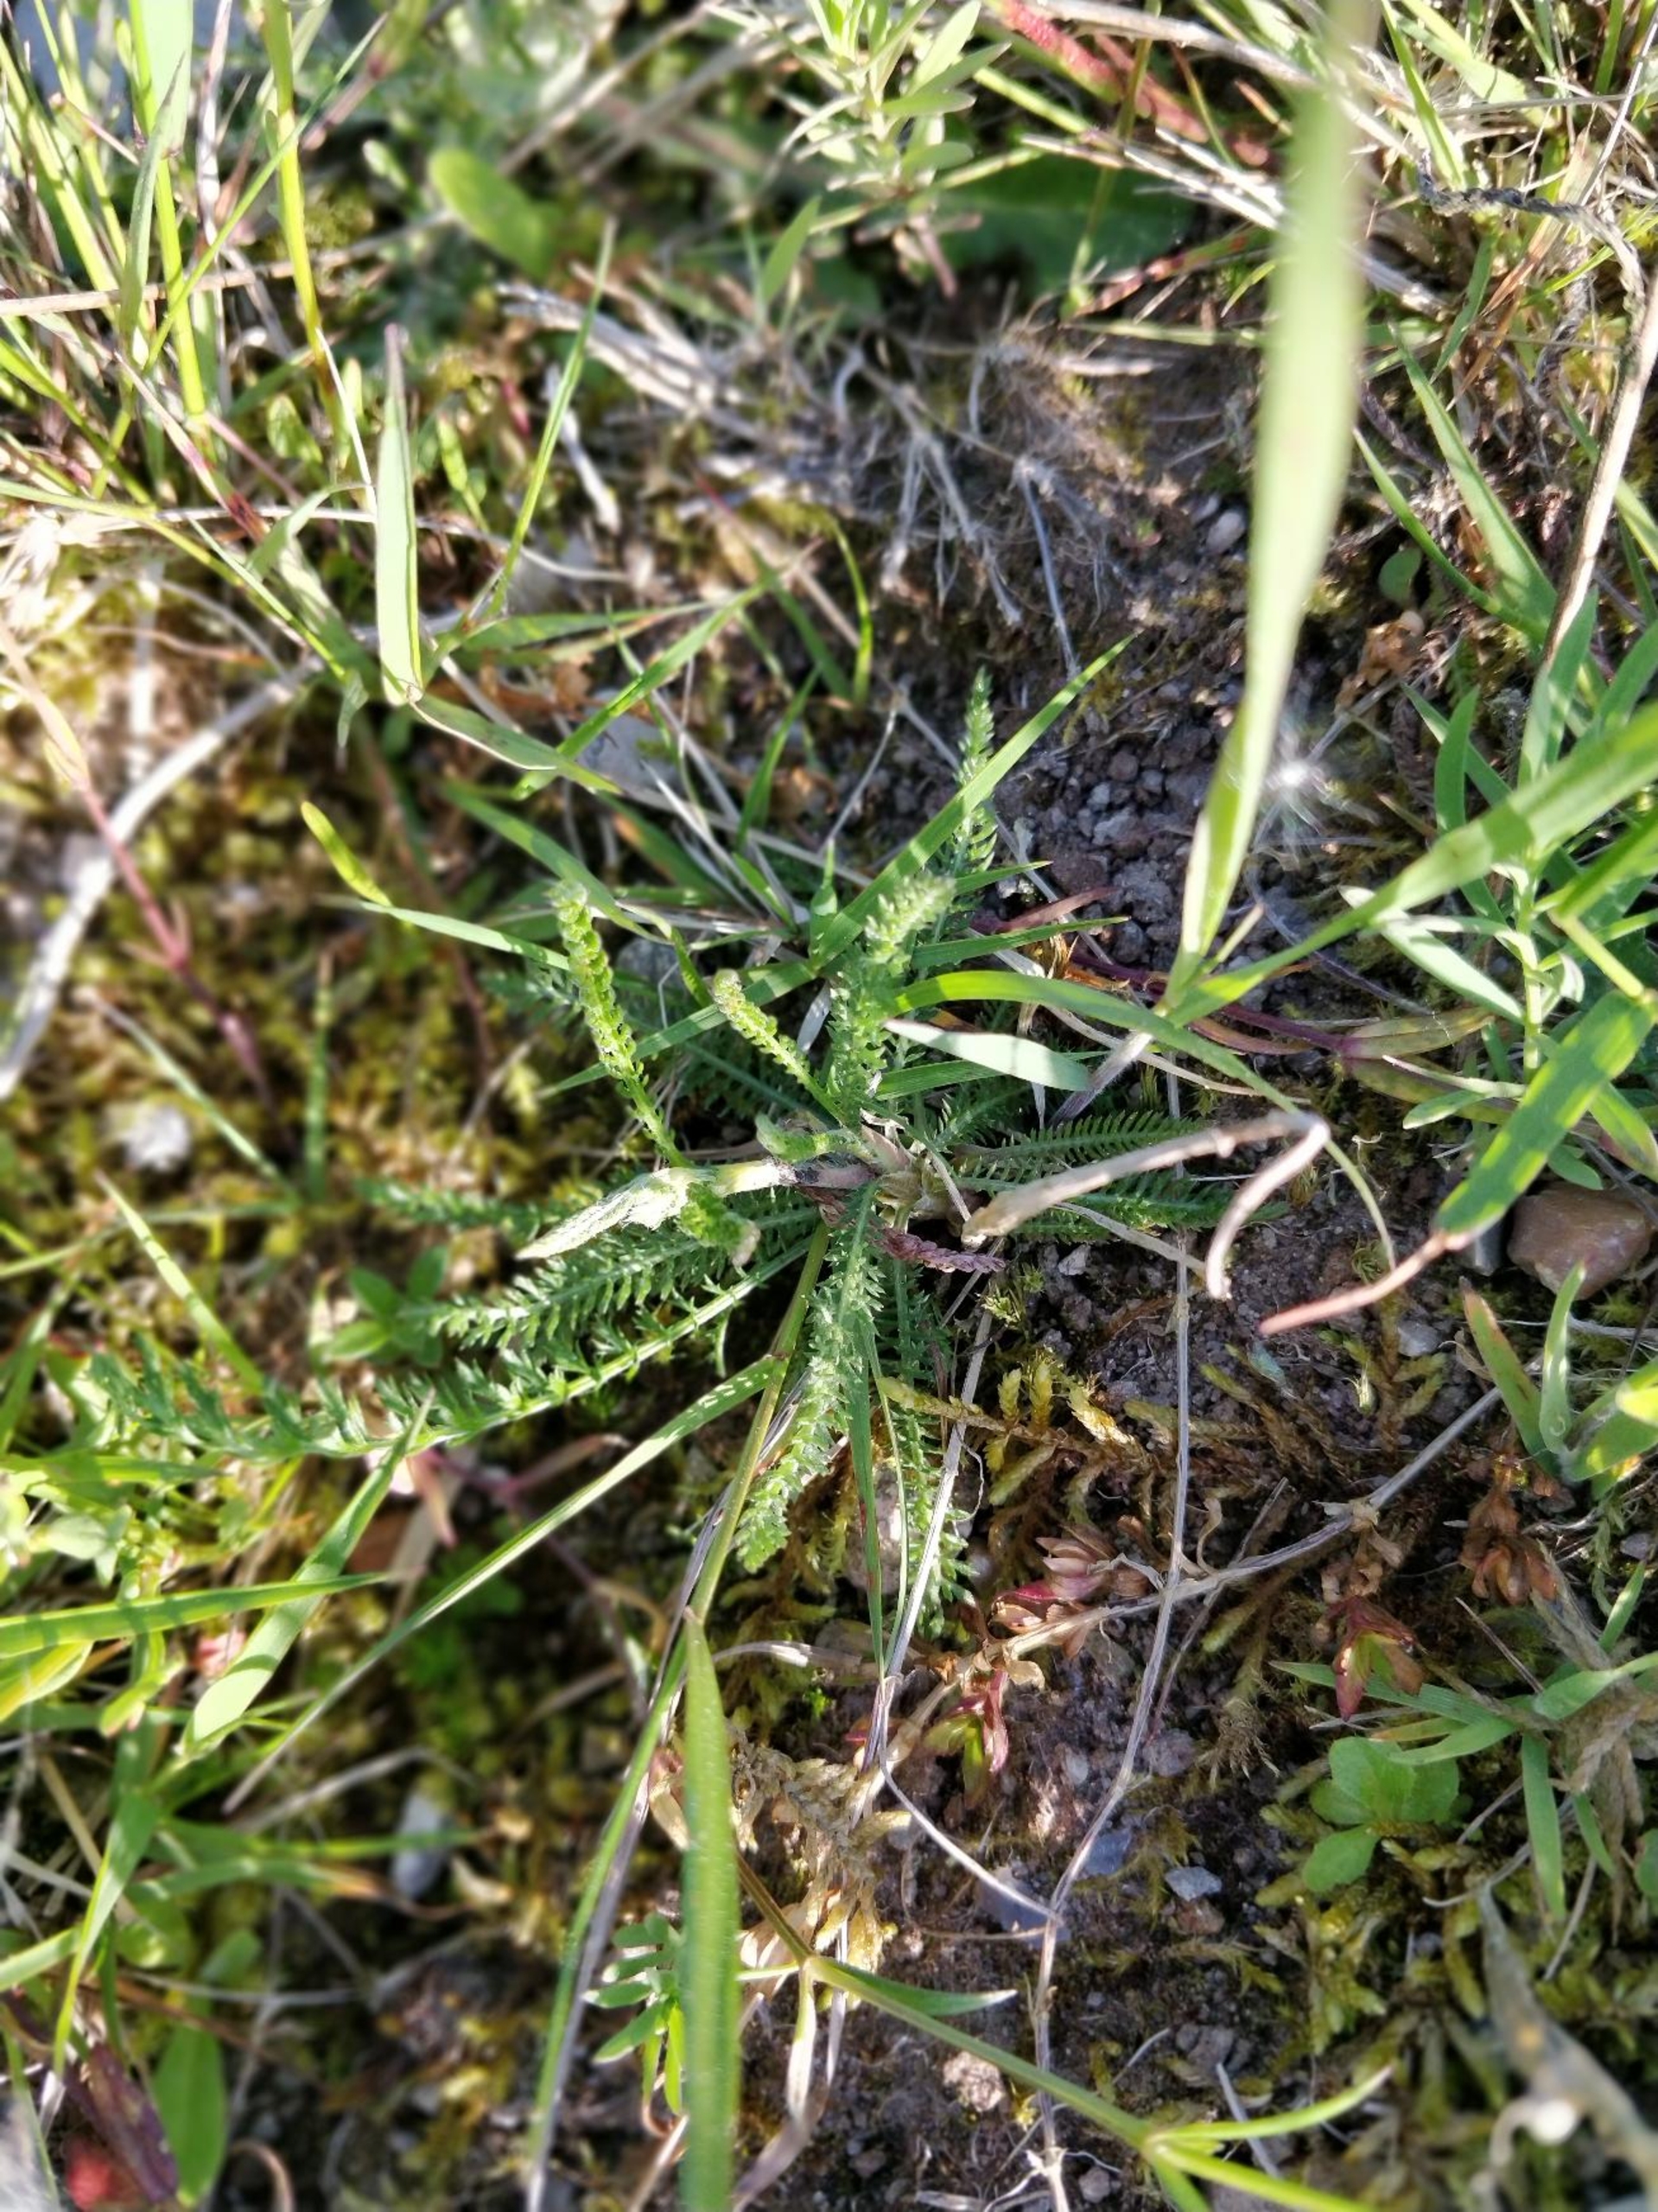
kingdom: Plantae
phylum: Tracheophyta
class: Magnoliopsida
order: Asterales
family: Asteraceae
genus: Achillea
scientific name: Achillea millefolium
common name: Almindelig røllike
